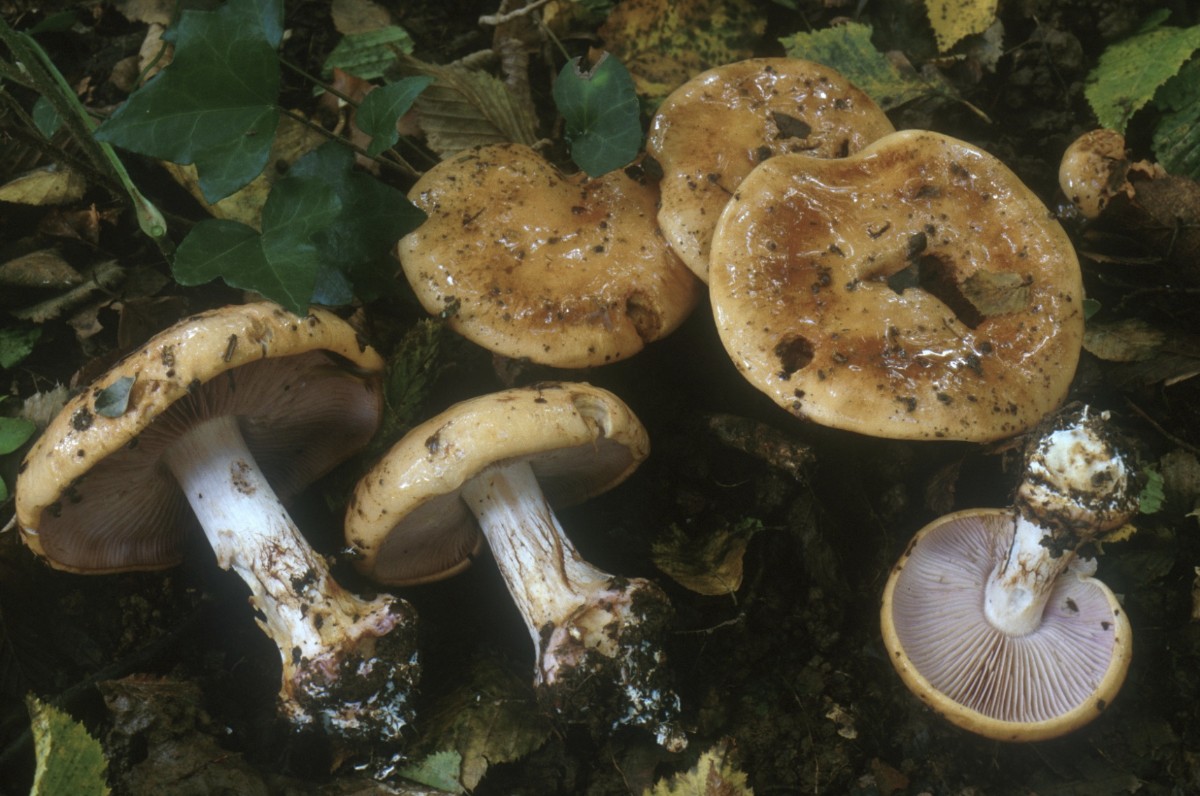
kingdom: Fungi
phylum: Basidiomycota
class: Agaricomycetes
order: Agaricales
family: Cortinariaceae
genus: Calonarius
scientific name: Calonarius arcuatorum
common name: violetflaget slørhat
